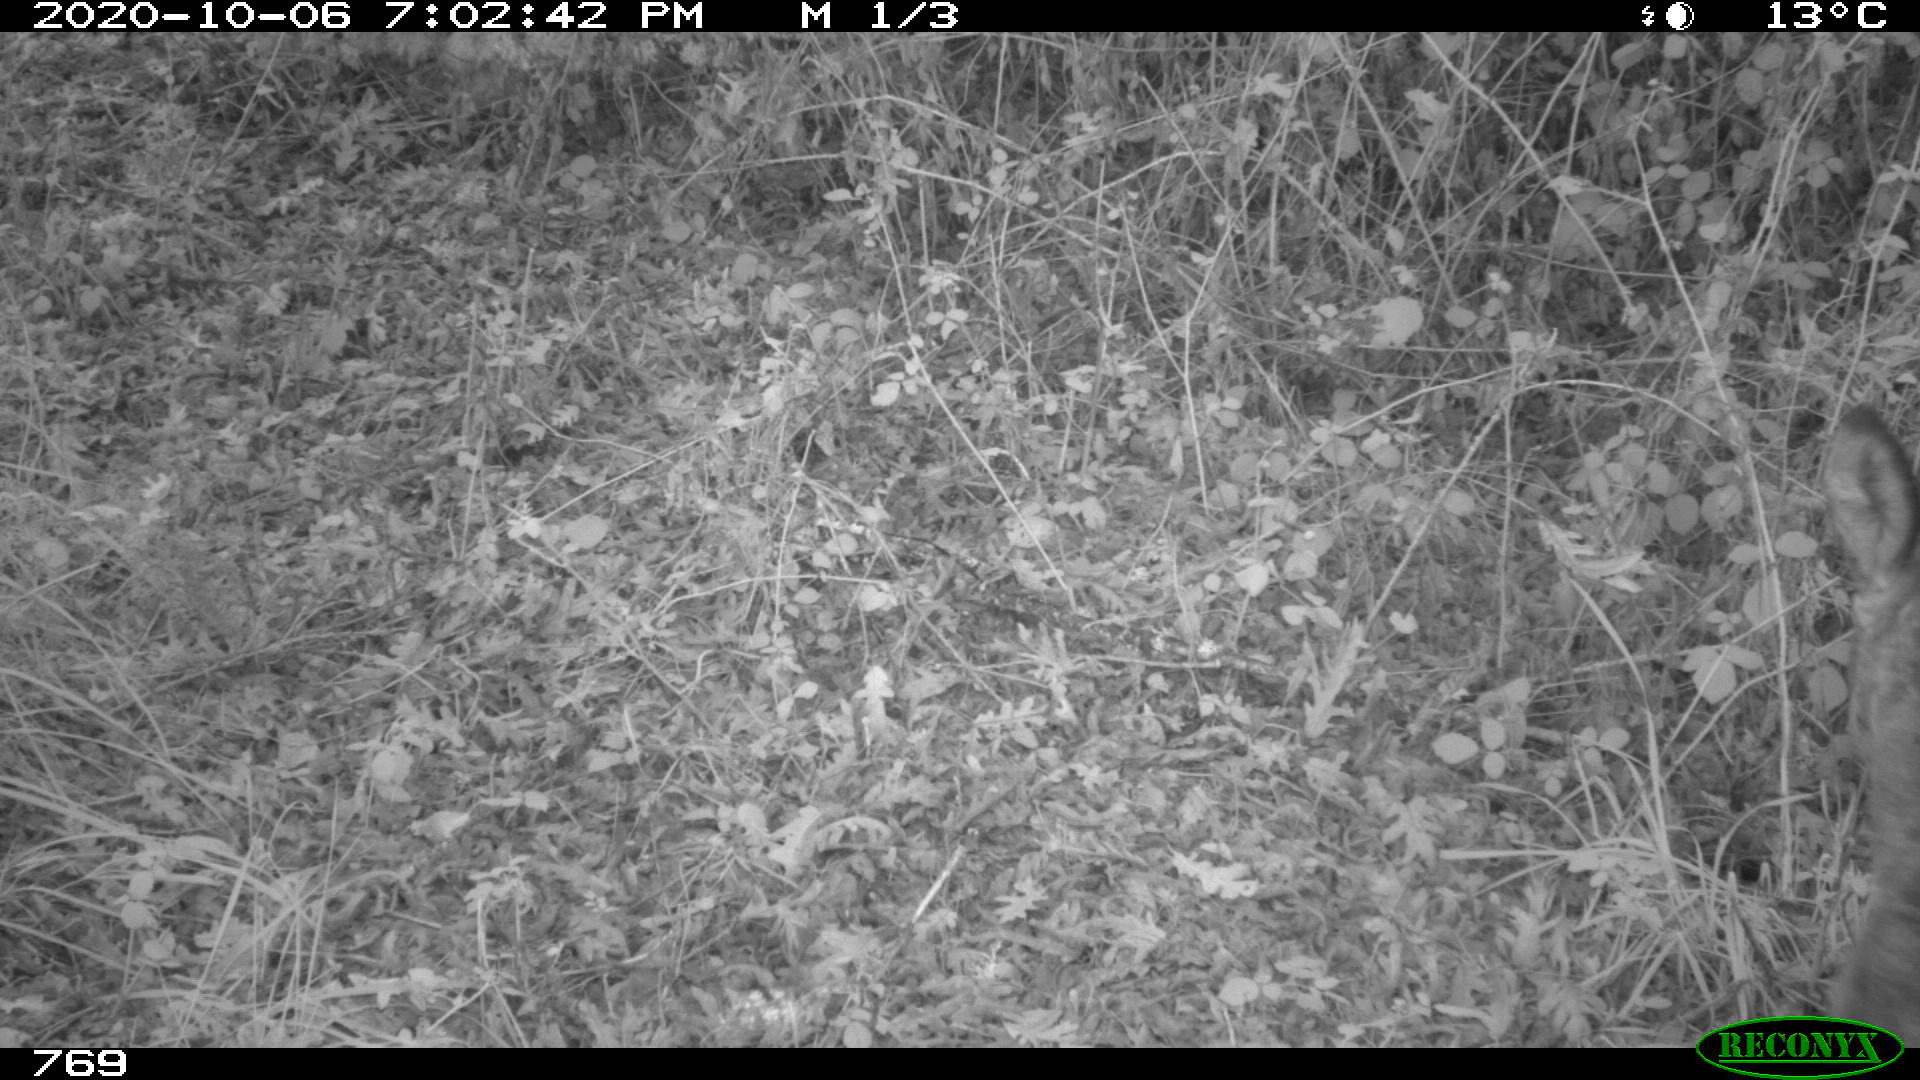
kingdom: Animalia
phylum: Chordata
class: Mammalia
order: Artiodactyla
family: Cervidae
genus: Capreolus
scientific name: Capreolus capreolus
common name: Western roe deer
